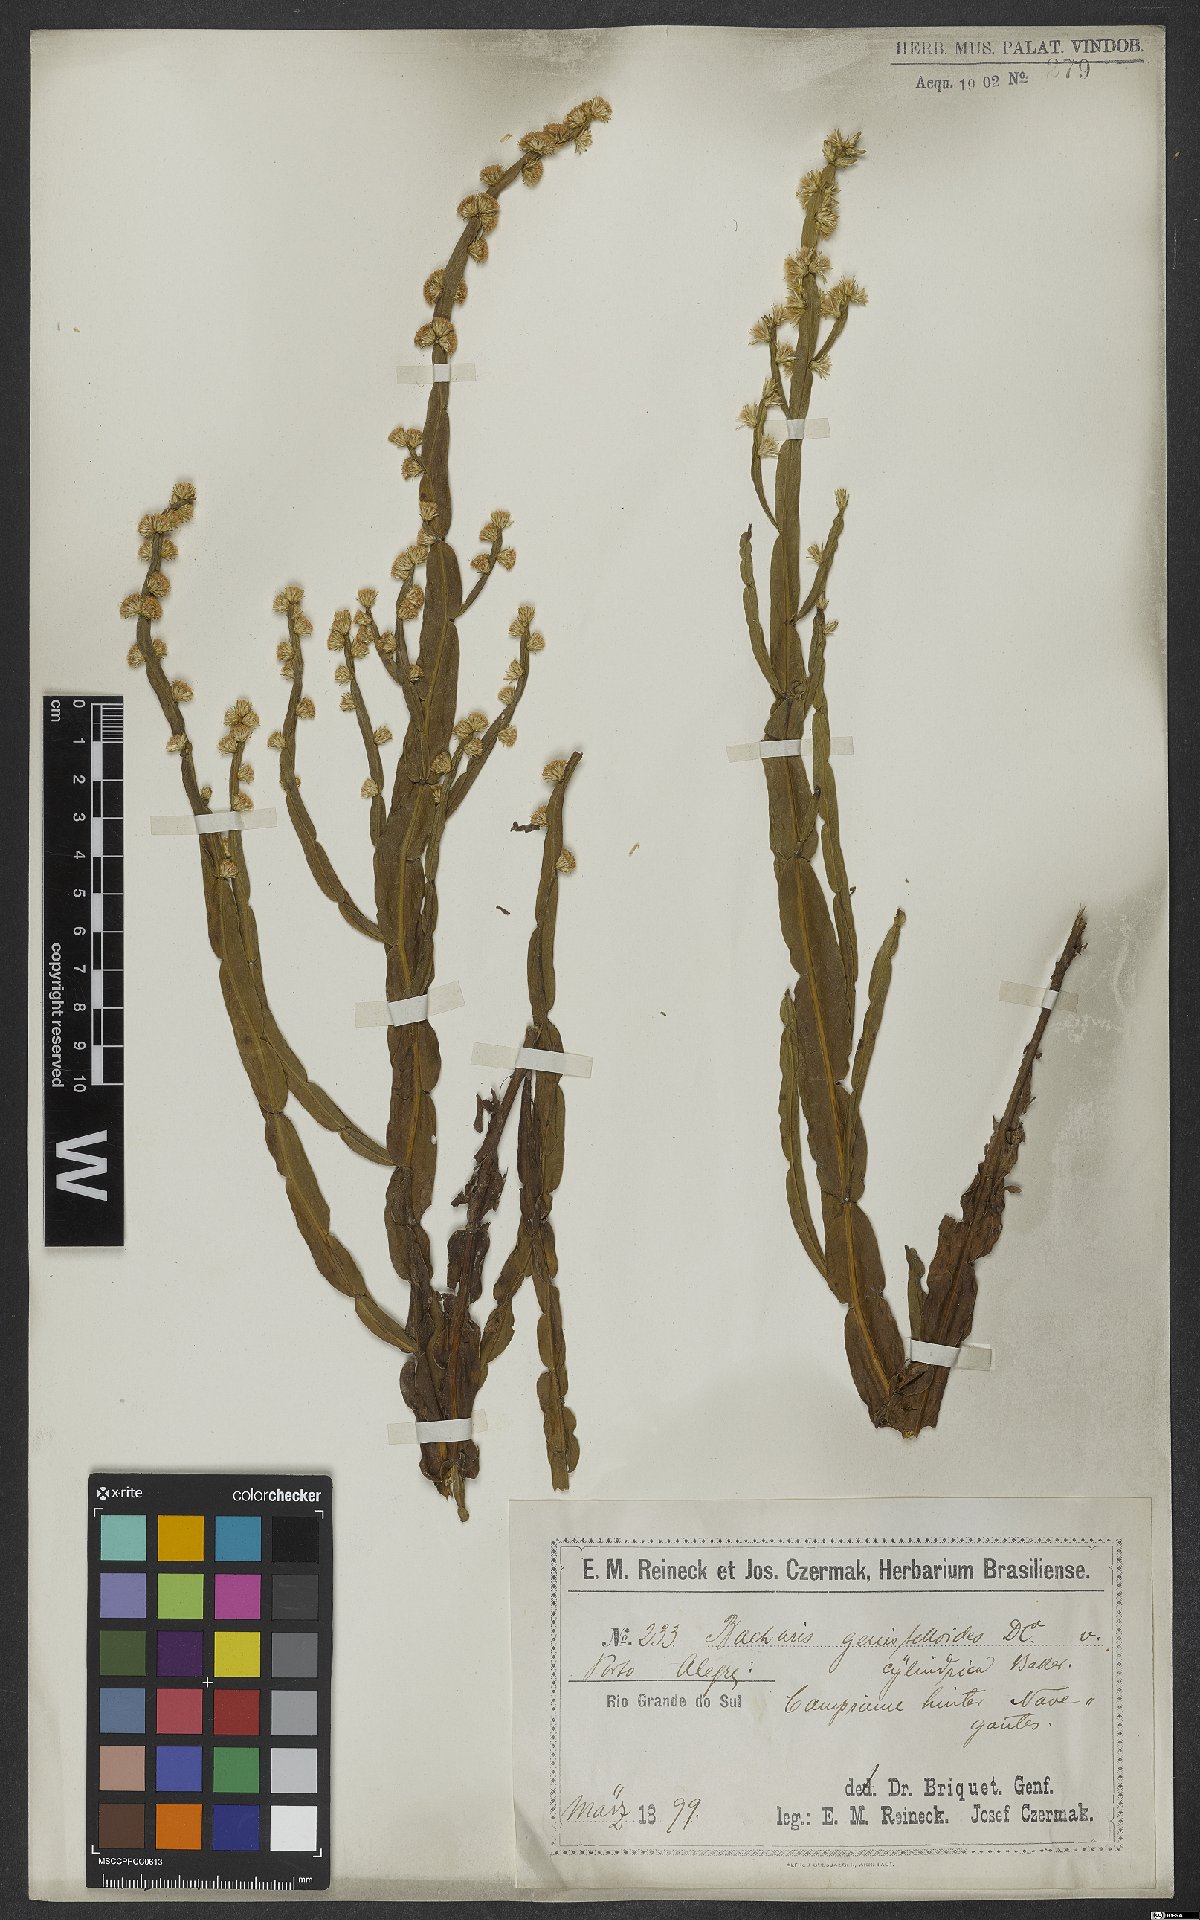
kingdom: Plantae
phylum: Tracheophyta
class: Magnoliopsida
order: Asterales
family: Asteraceae
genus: Baccharis
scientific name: Baccharis genistelloides
